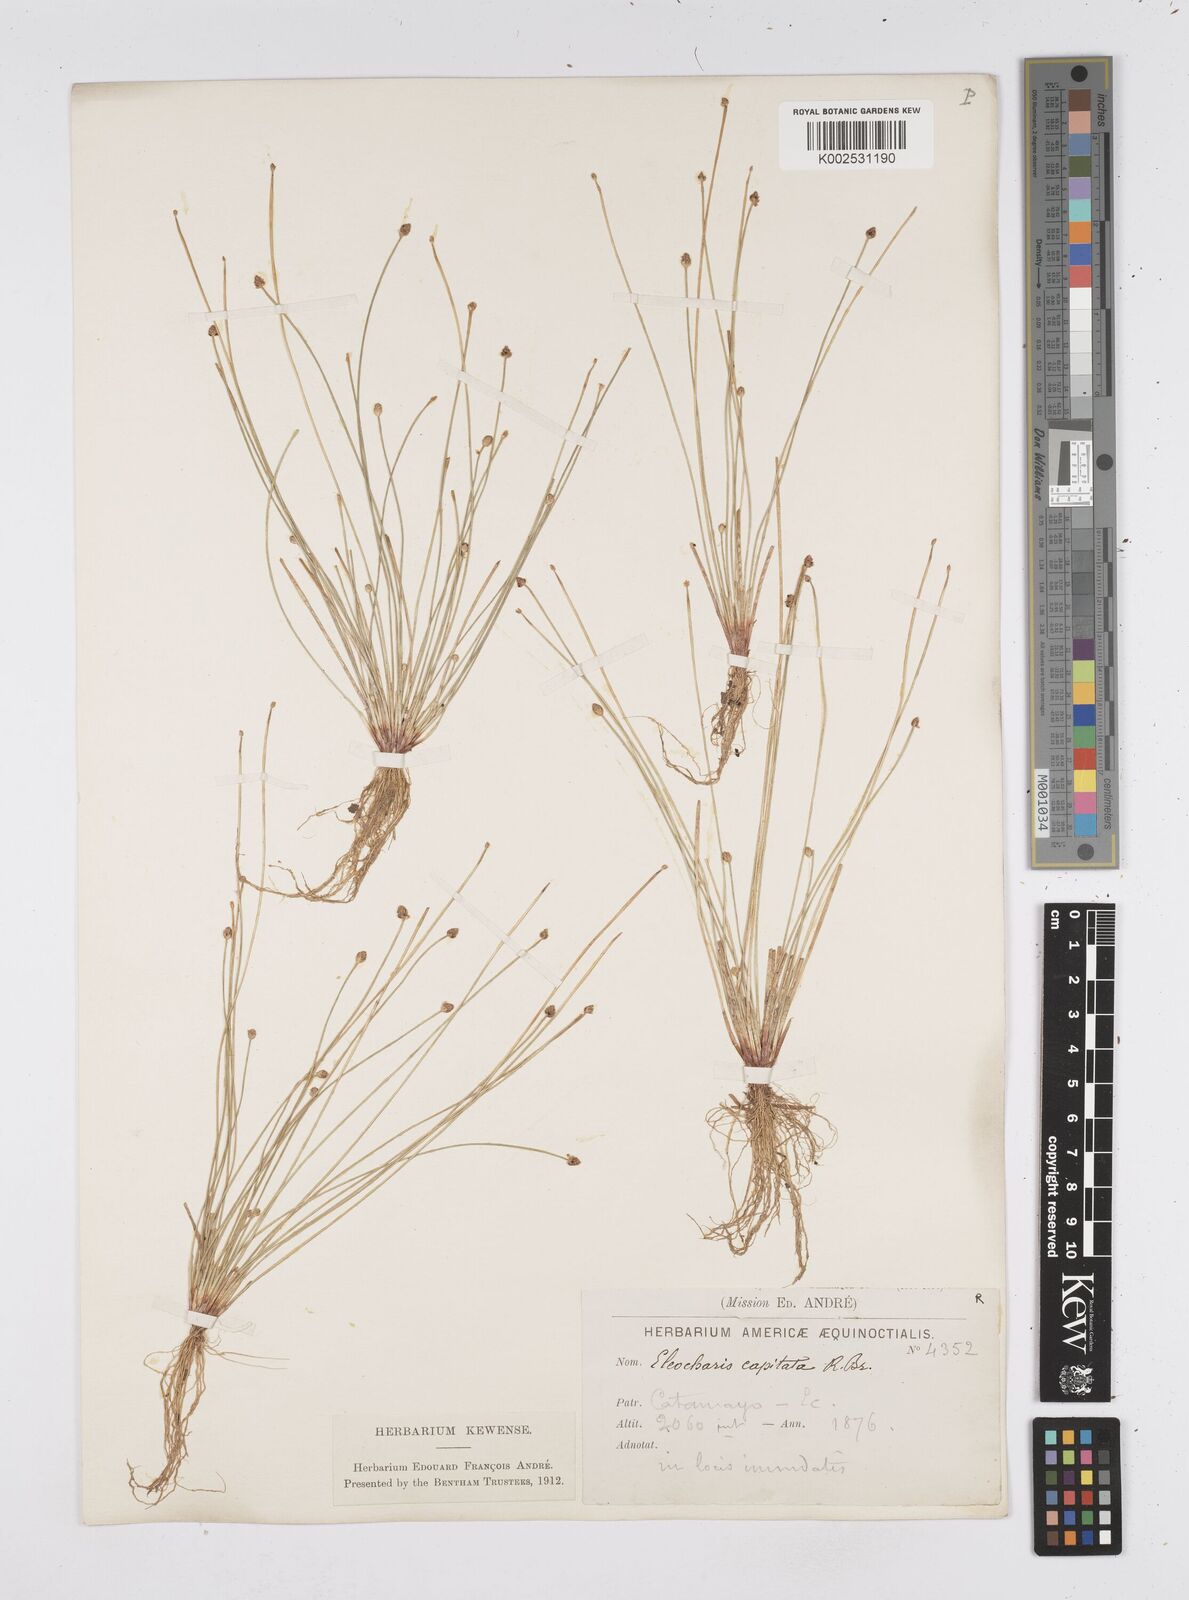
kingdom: Plantae
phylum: Tracheophyta
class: Liliopsida
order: Poales
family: Cyperaceae
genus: Eleocharis
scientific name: Eleocharis geniculata
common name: Canada spikesedge
